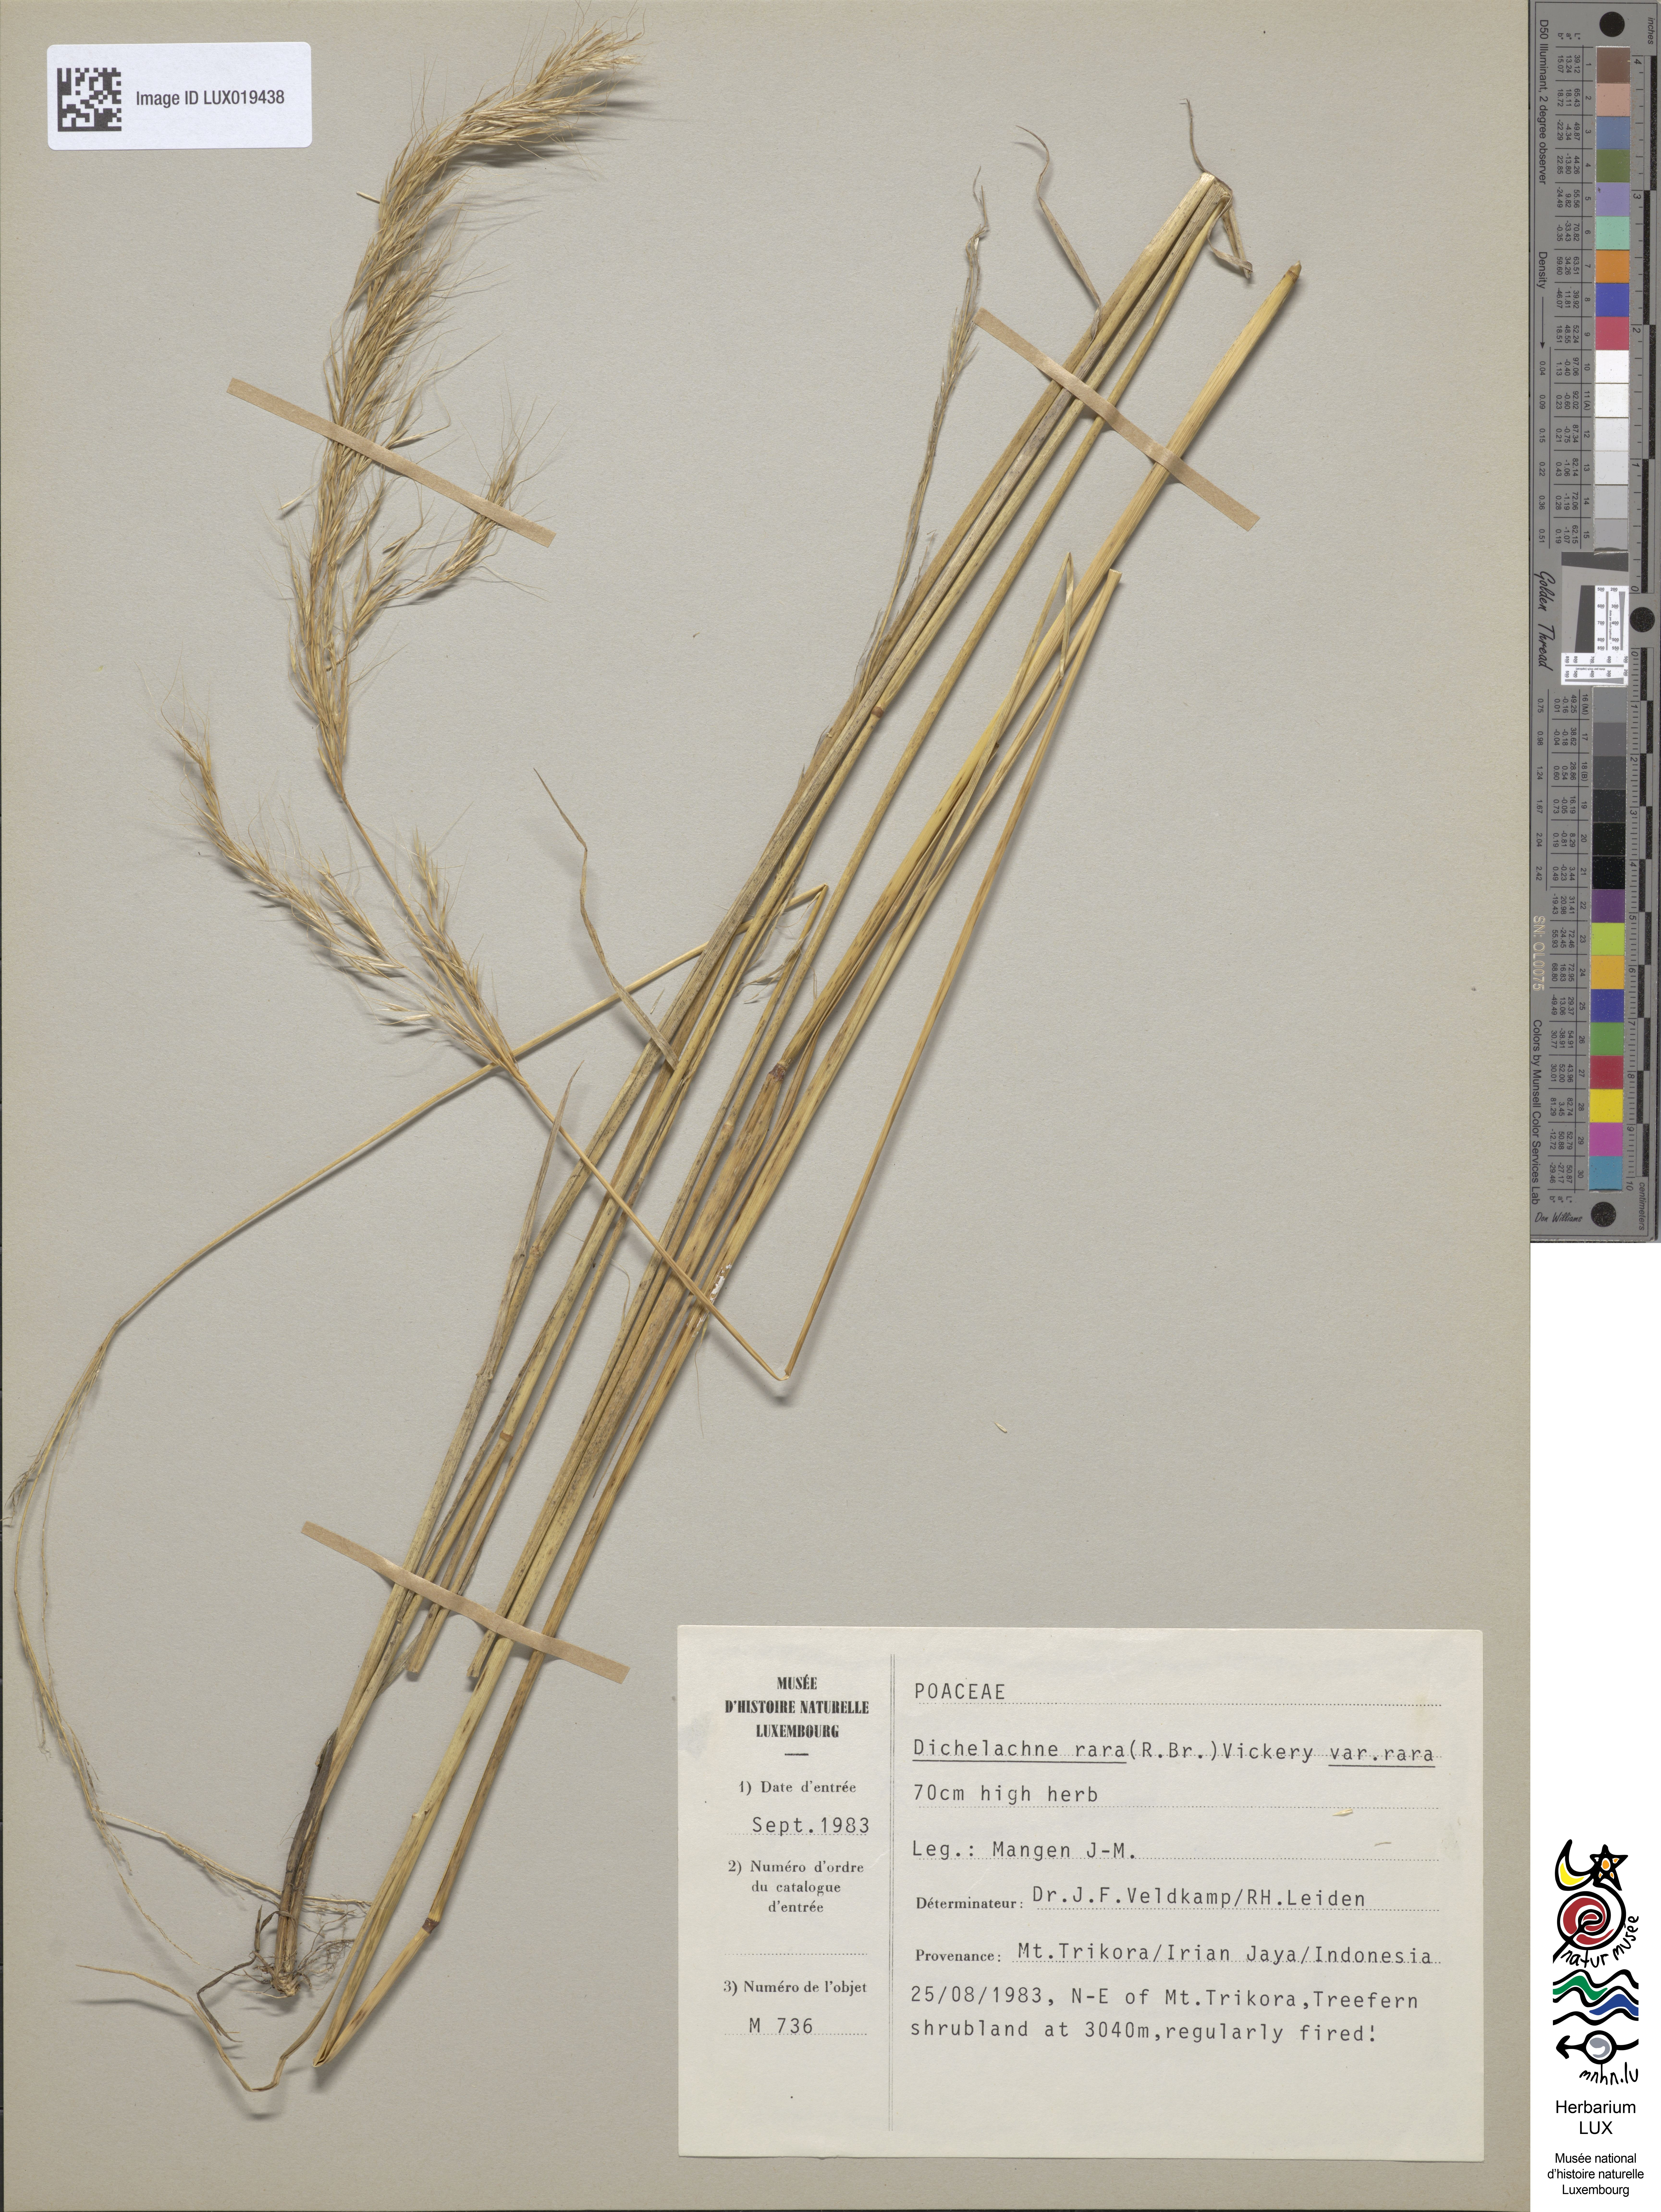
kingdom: Plantae
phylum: Tracheophyta
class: Liliopsida
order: Poales
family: Poaceae
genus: Dichelachne
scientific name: Dichelachne rara
